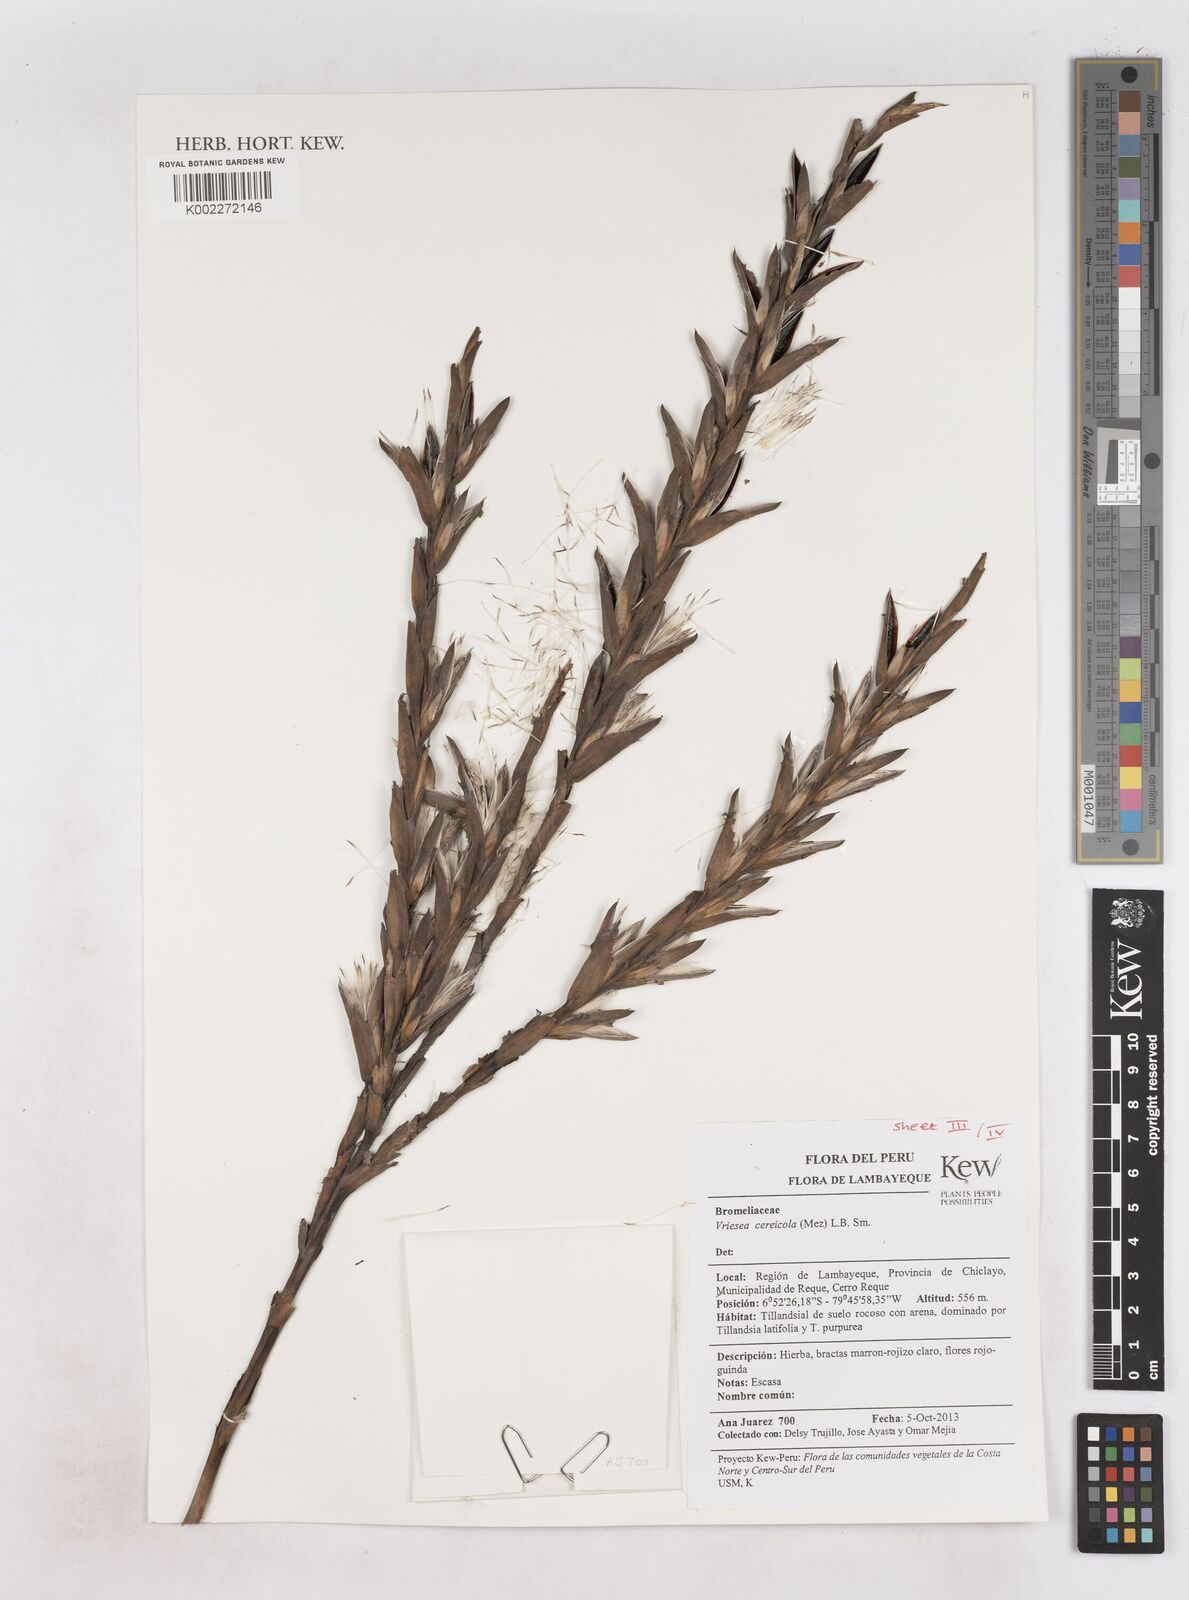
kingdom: Plantae
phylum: Tracheophyta
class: Liliopsida
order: Poales
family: Bromeliaceae
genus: Tillandsia
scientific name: Tillandsia barclayana
